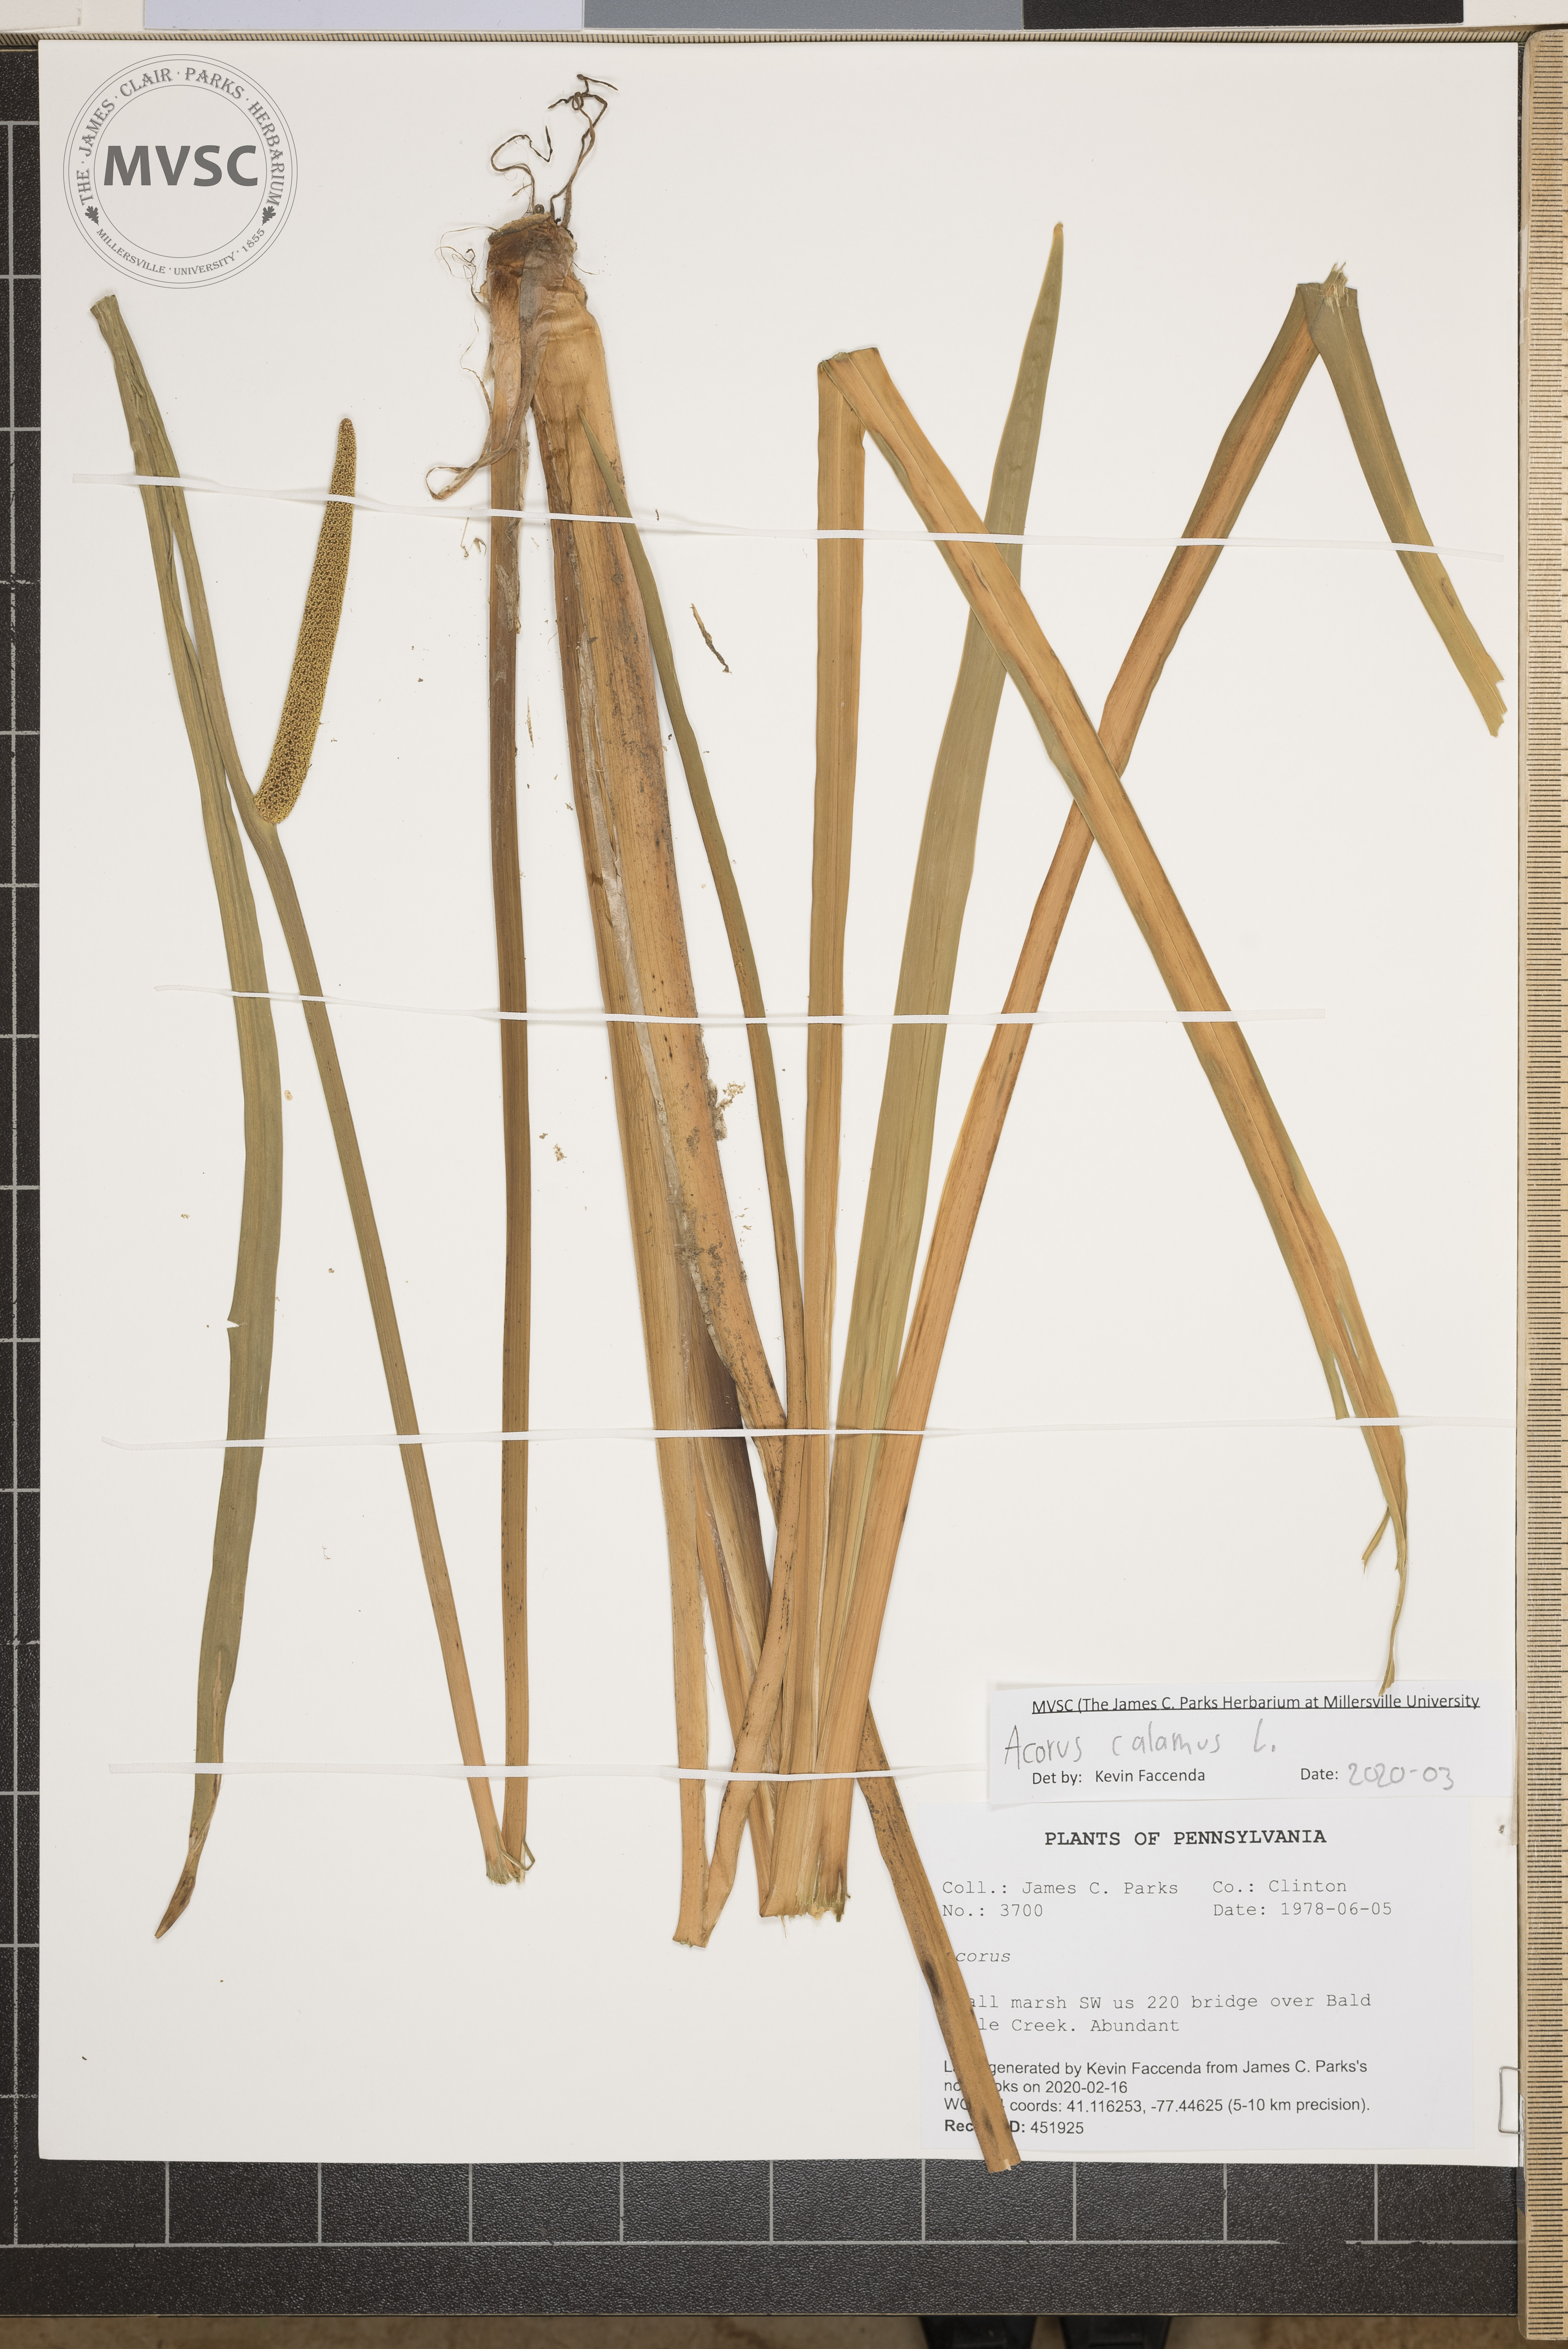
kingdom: Plantae
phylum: Tracheophyta
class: Liliopsida
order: Acorales
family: Acoraceae
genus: Acorus
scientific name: Acorus calamus
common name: Sweet-flag
